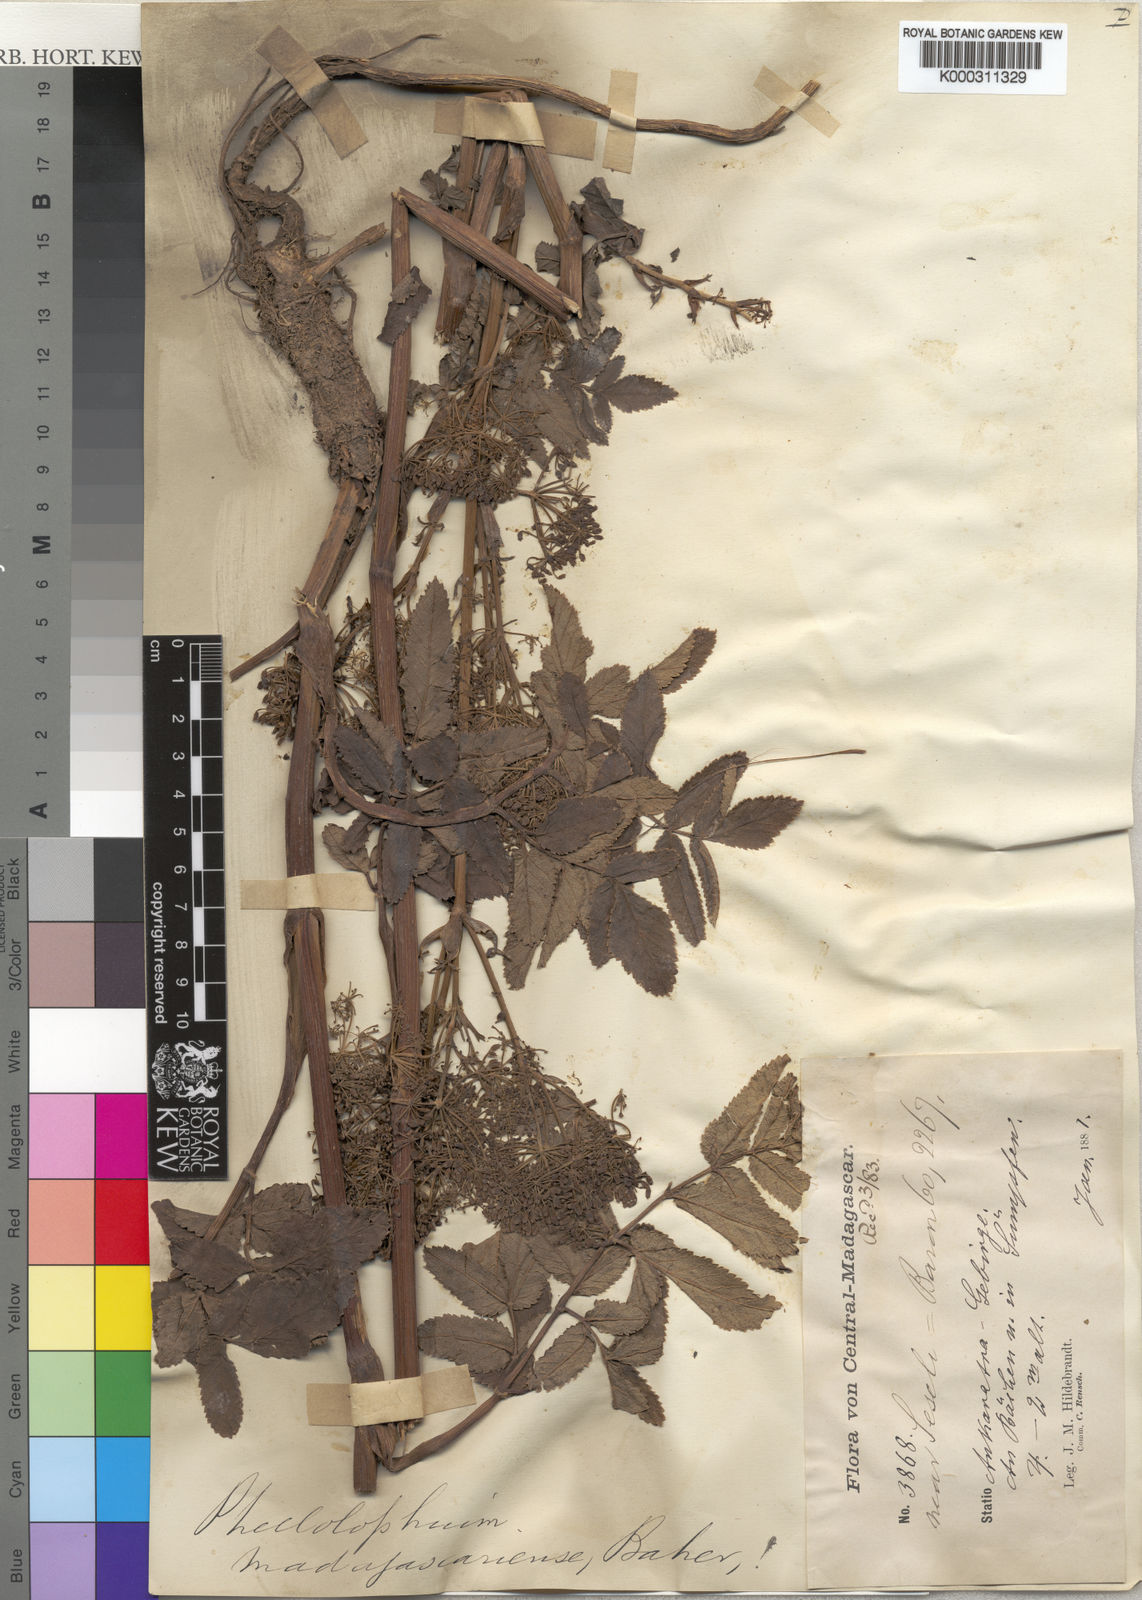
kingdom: Plantae
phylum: Tracheophyta
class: Magnoliopsida
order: Apiales
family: Apiaceae
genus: Phellolophium
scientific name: Phellolophium madagascariense
